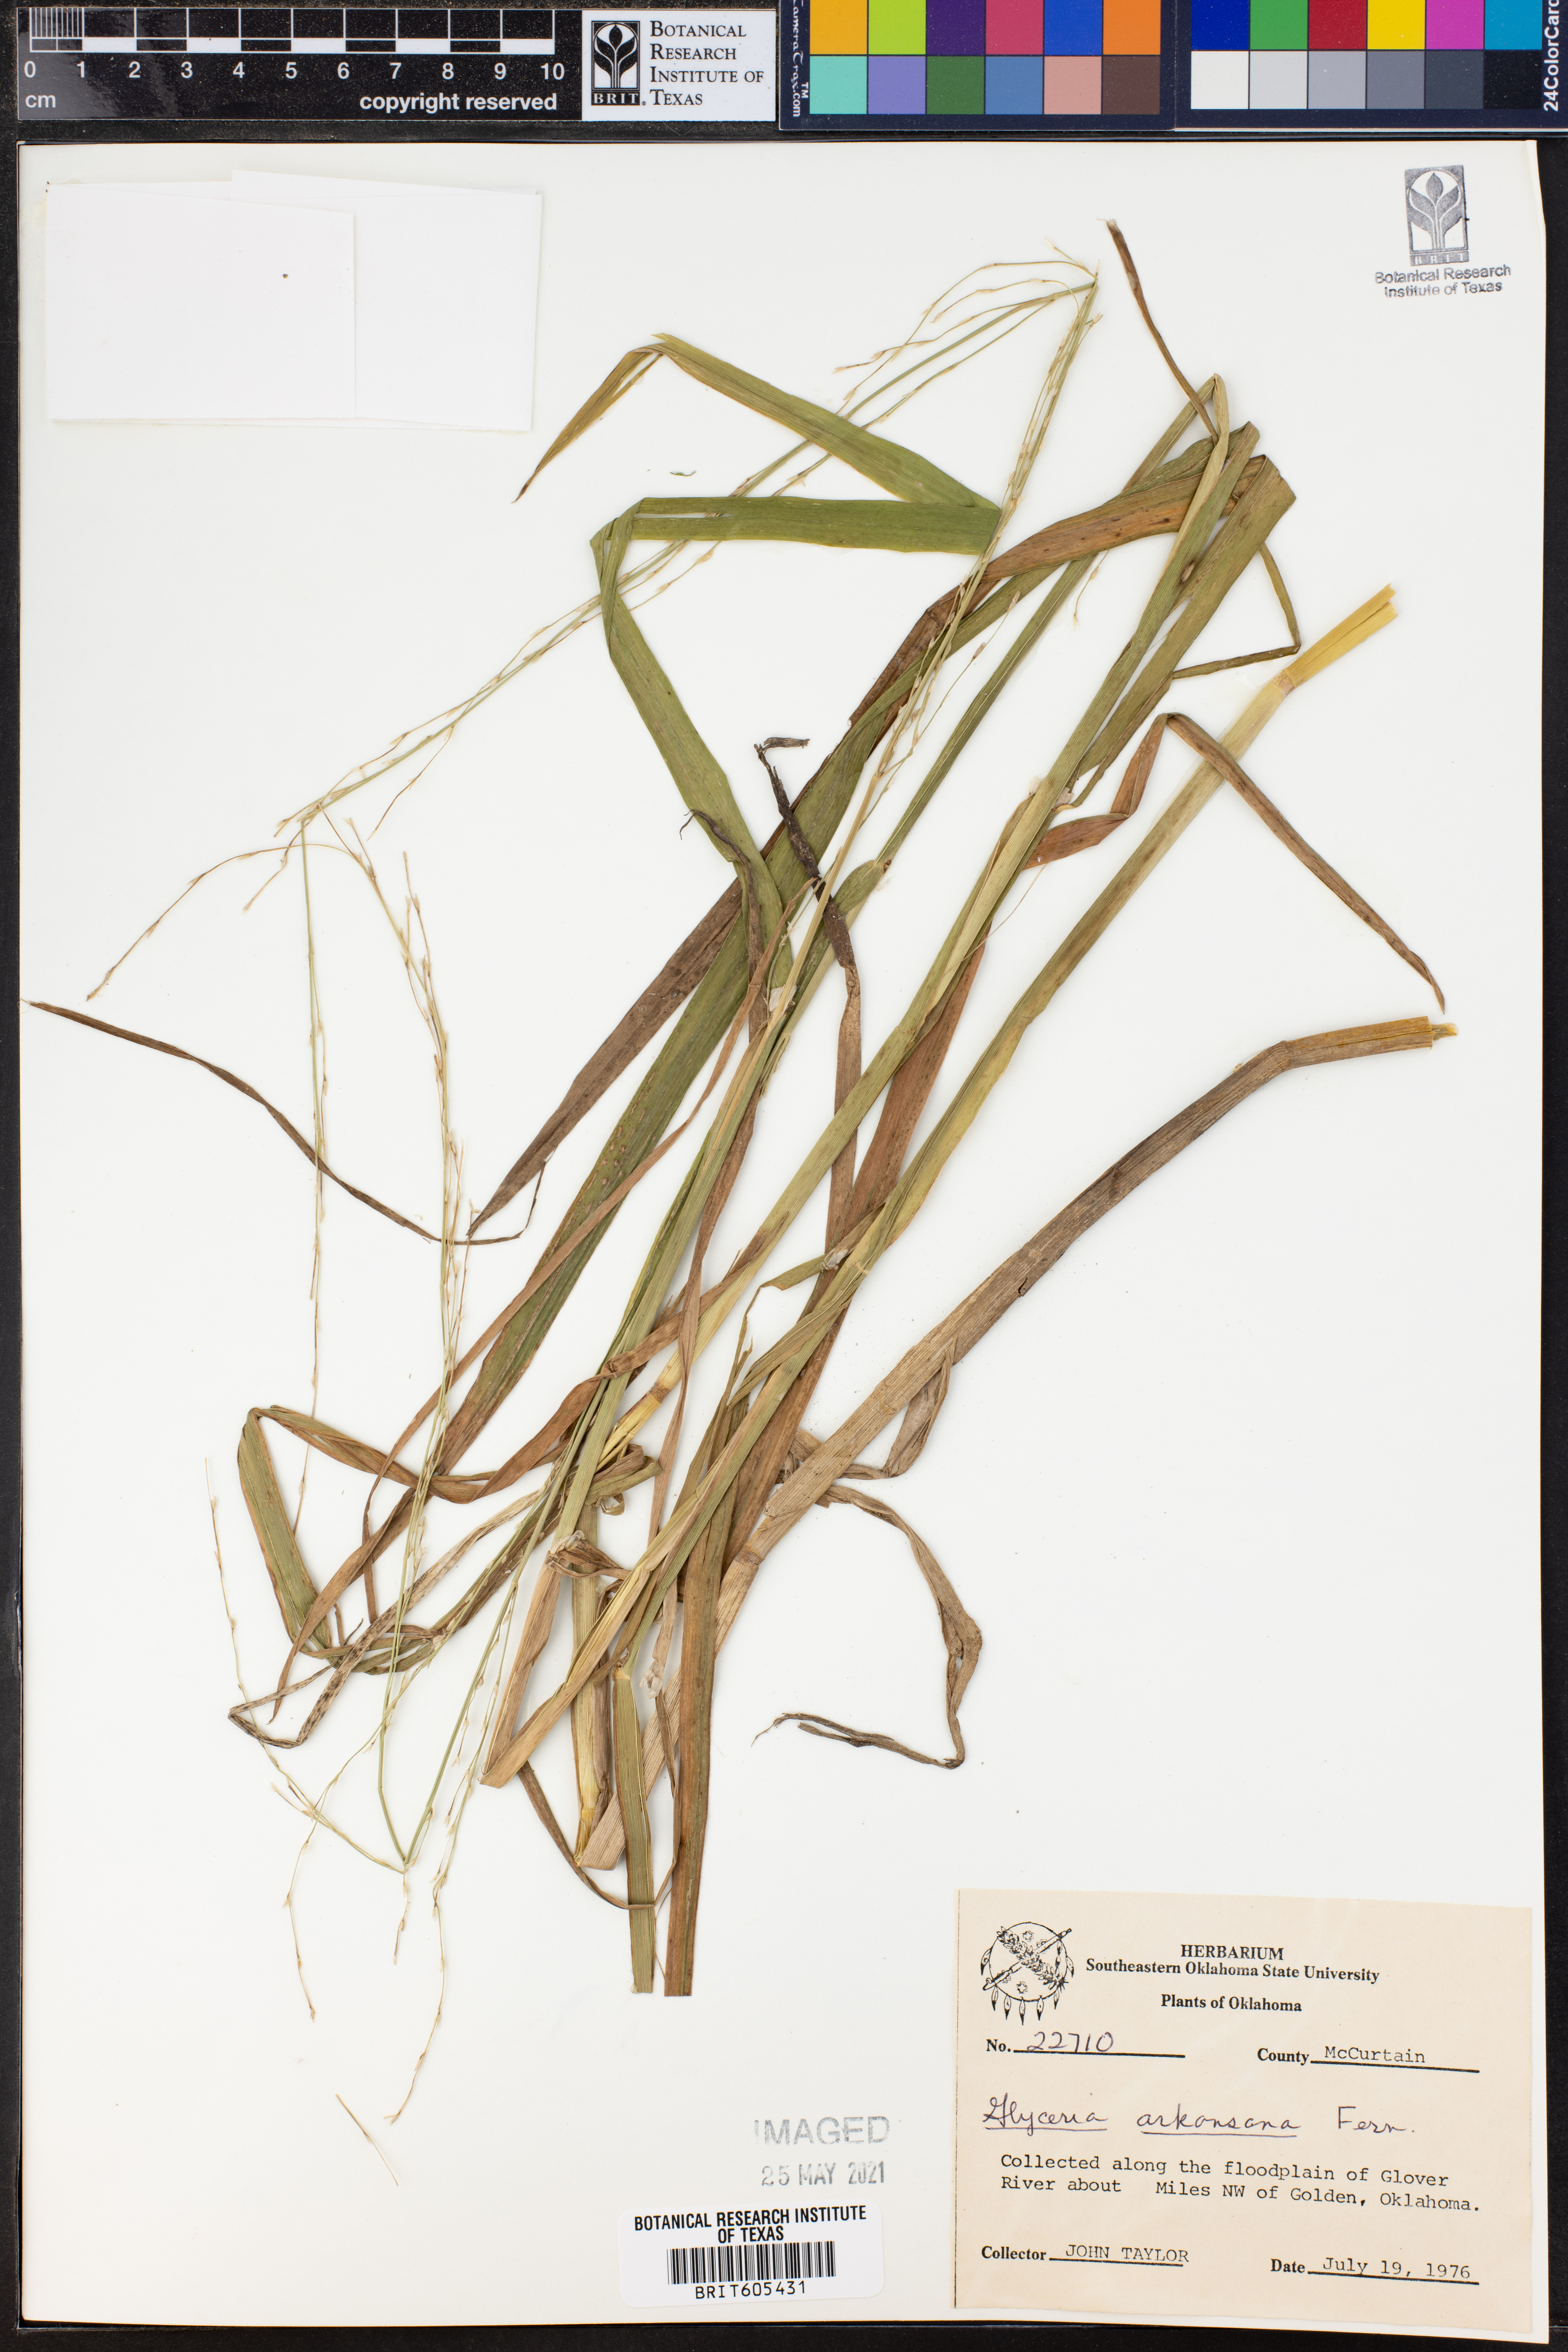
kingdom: Plantae
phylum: Tracheophyta
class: Liliopsida
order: Poales
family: Poaceae
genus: Glyceria
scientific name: Glyceria arkansana
